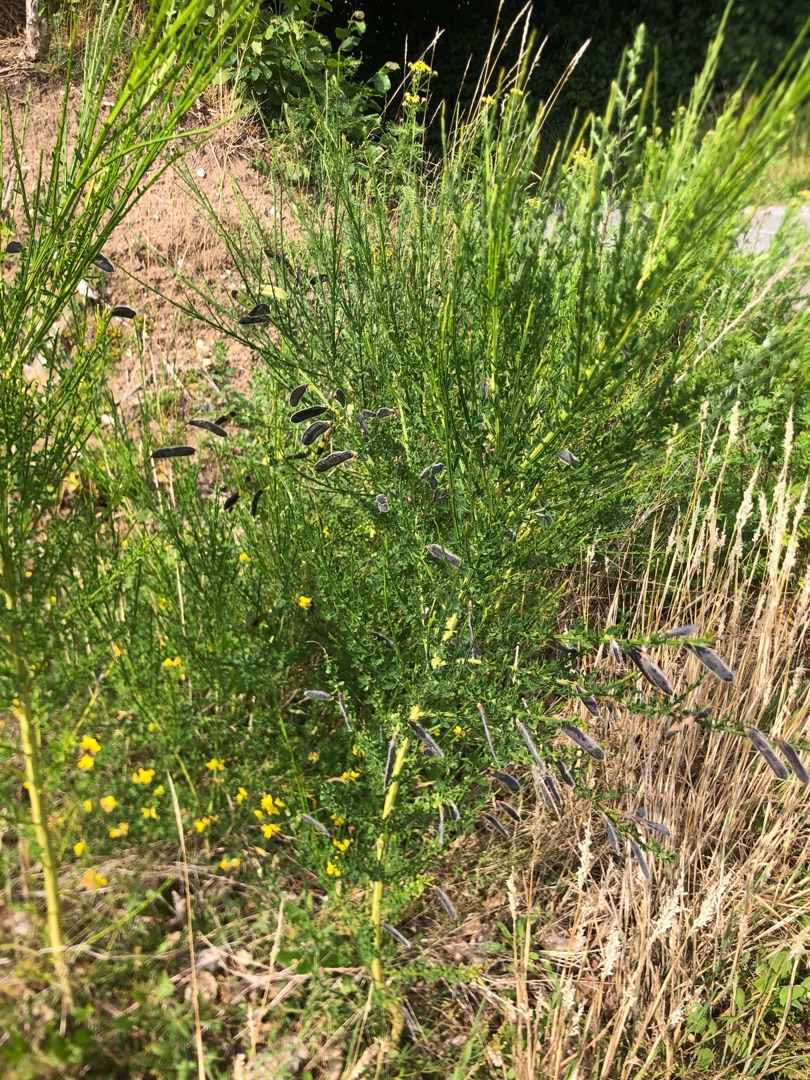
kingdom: Plantae
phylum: Tracheophyta
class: Magnoliopsida
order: Fabales
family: Fabaceae
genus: Cytisus
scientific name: Cytisus scoparius
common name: Almindelig gyvel
